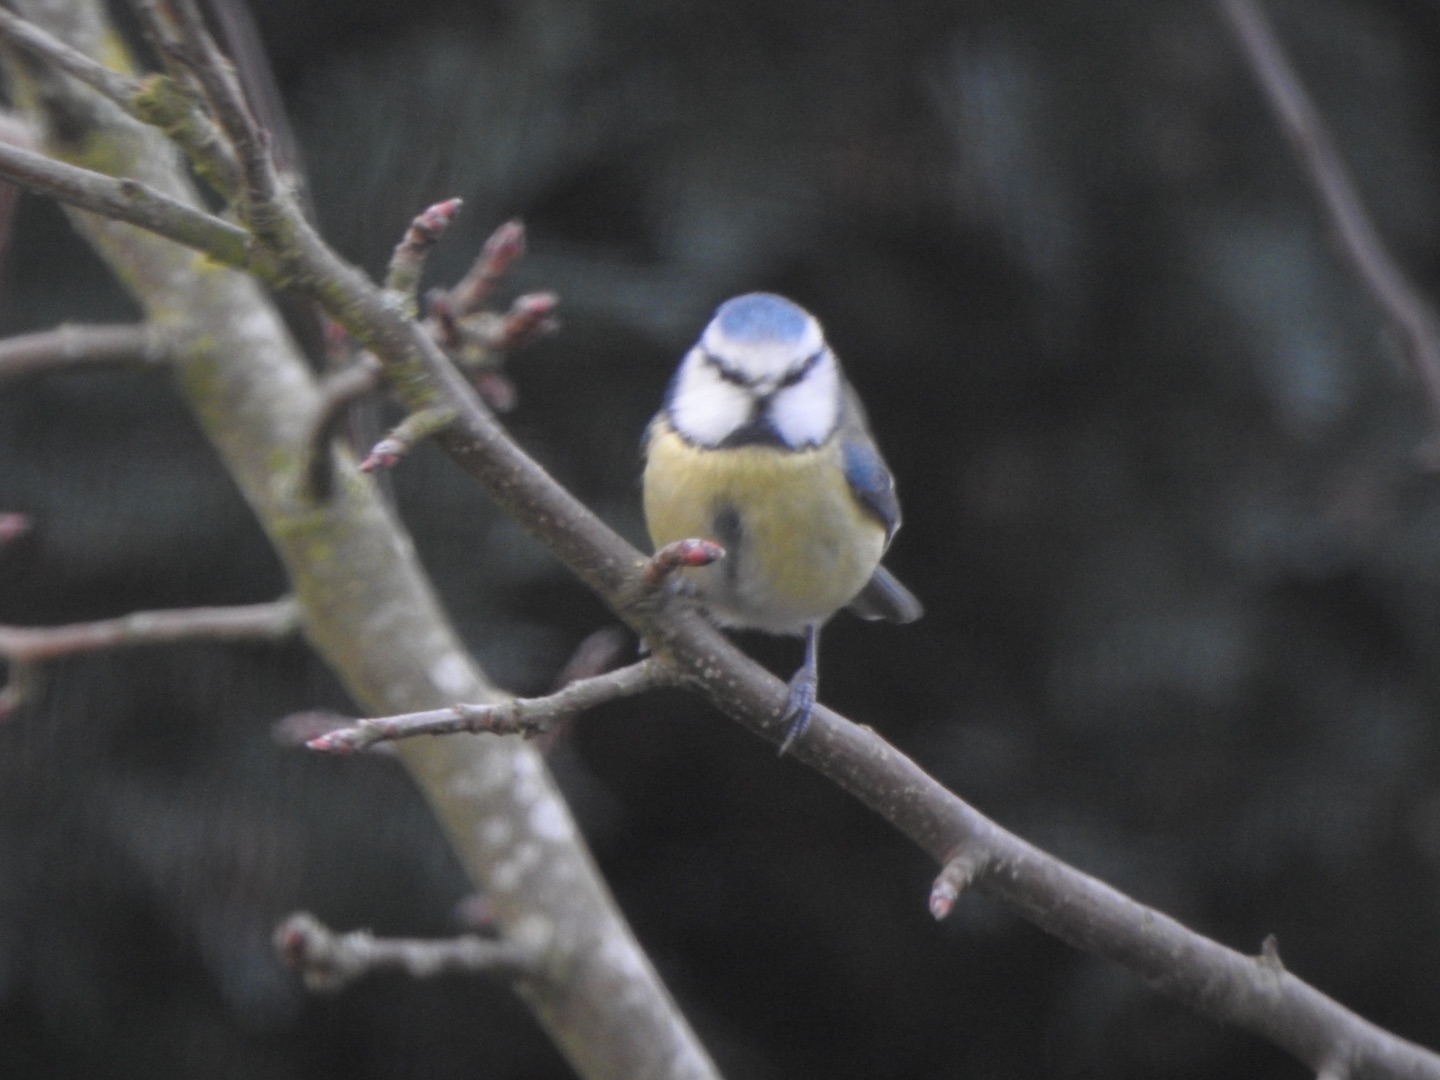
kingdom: Animalia
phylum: Chordata
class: Aves
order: Passeriformes
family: Paridae
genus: Cyanistes
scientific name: Cyanistes caeruleus
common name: Blåmejse
